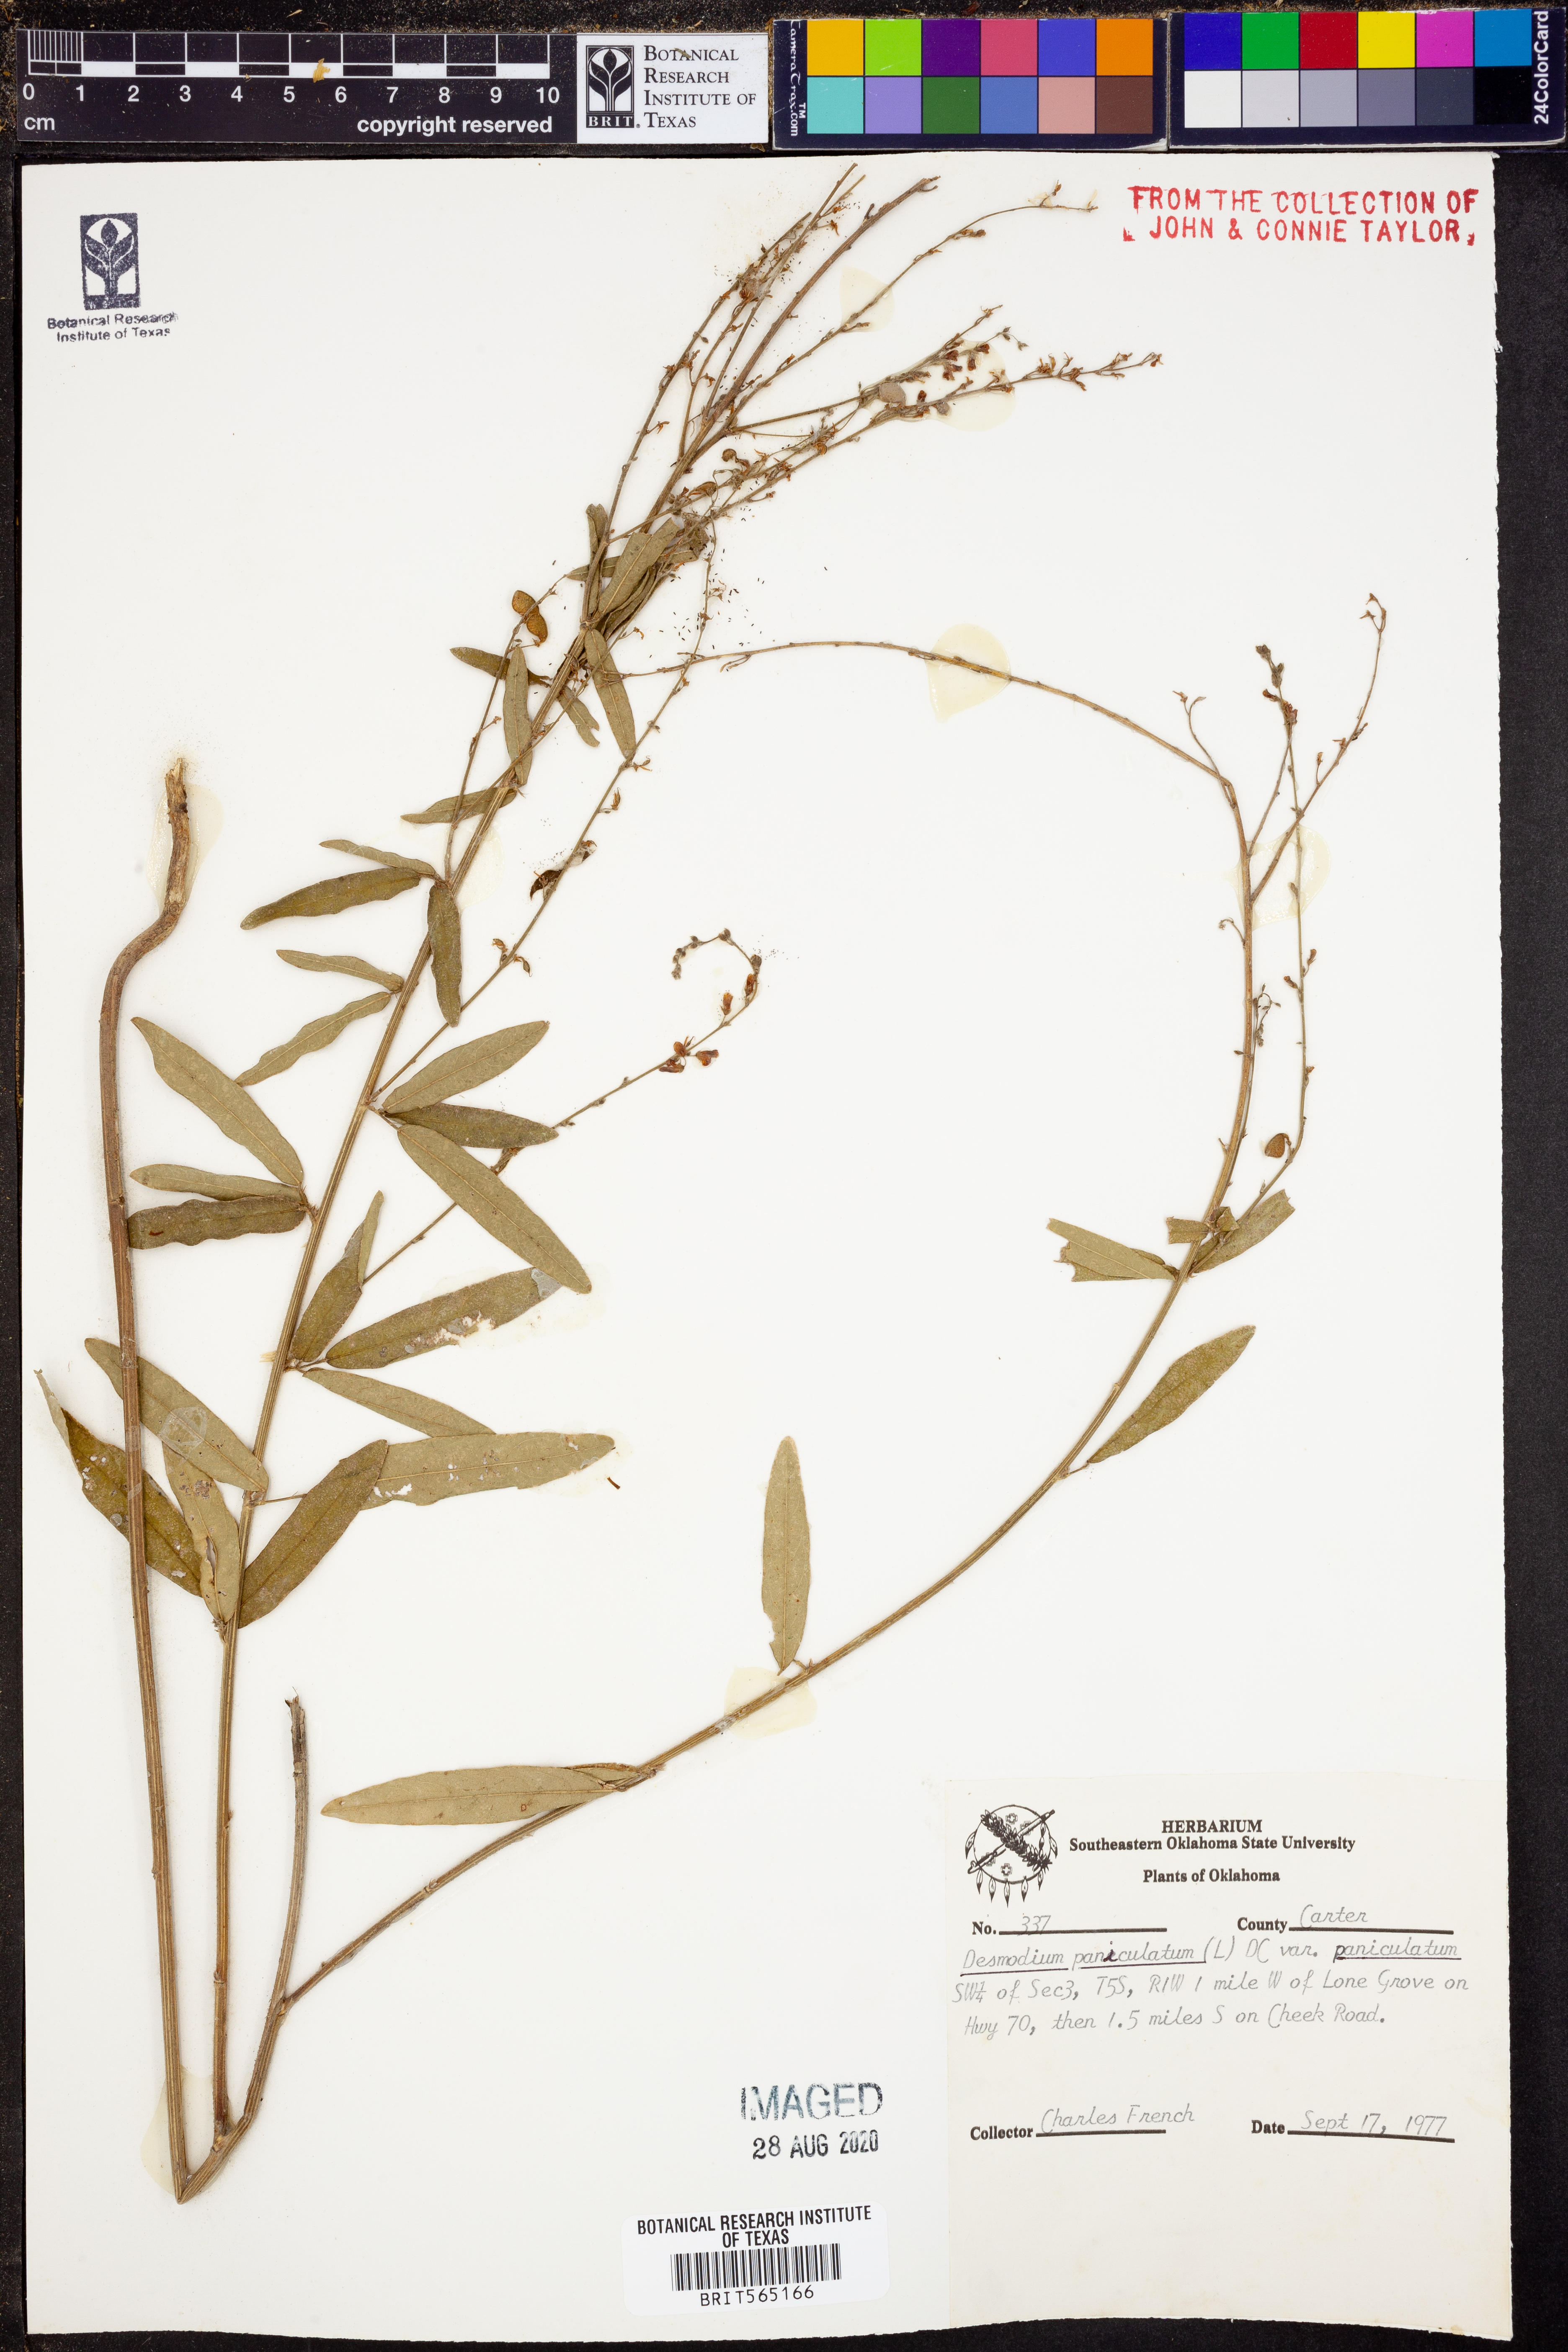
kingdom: Plantae
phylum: Tracheophyta
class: Magnoliopsida
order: Fabales
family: Fabaceae
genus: Desmodium
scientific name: Desmodium paniculatum
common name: Panicled tick-clover
